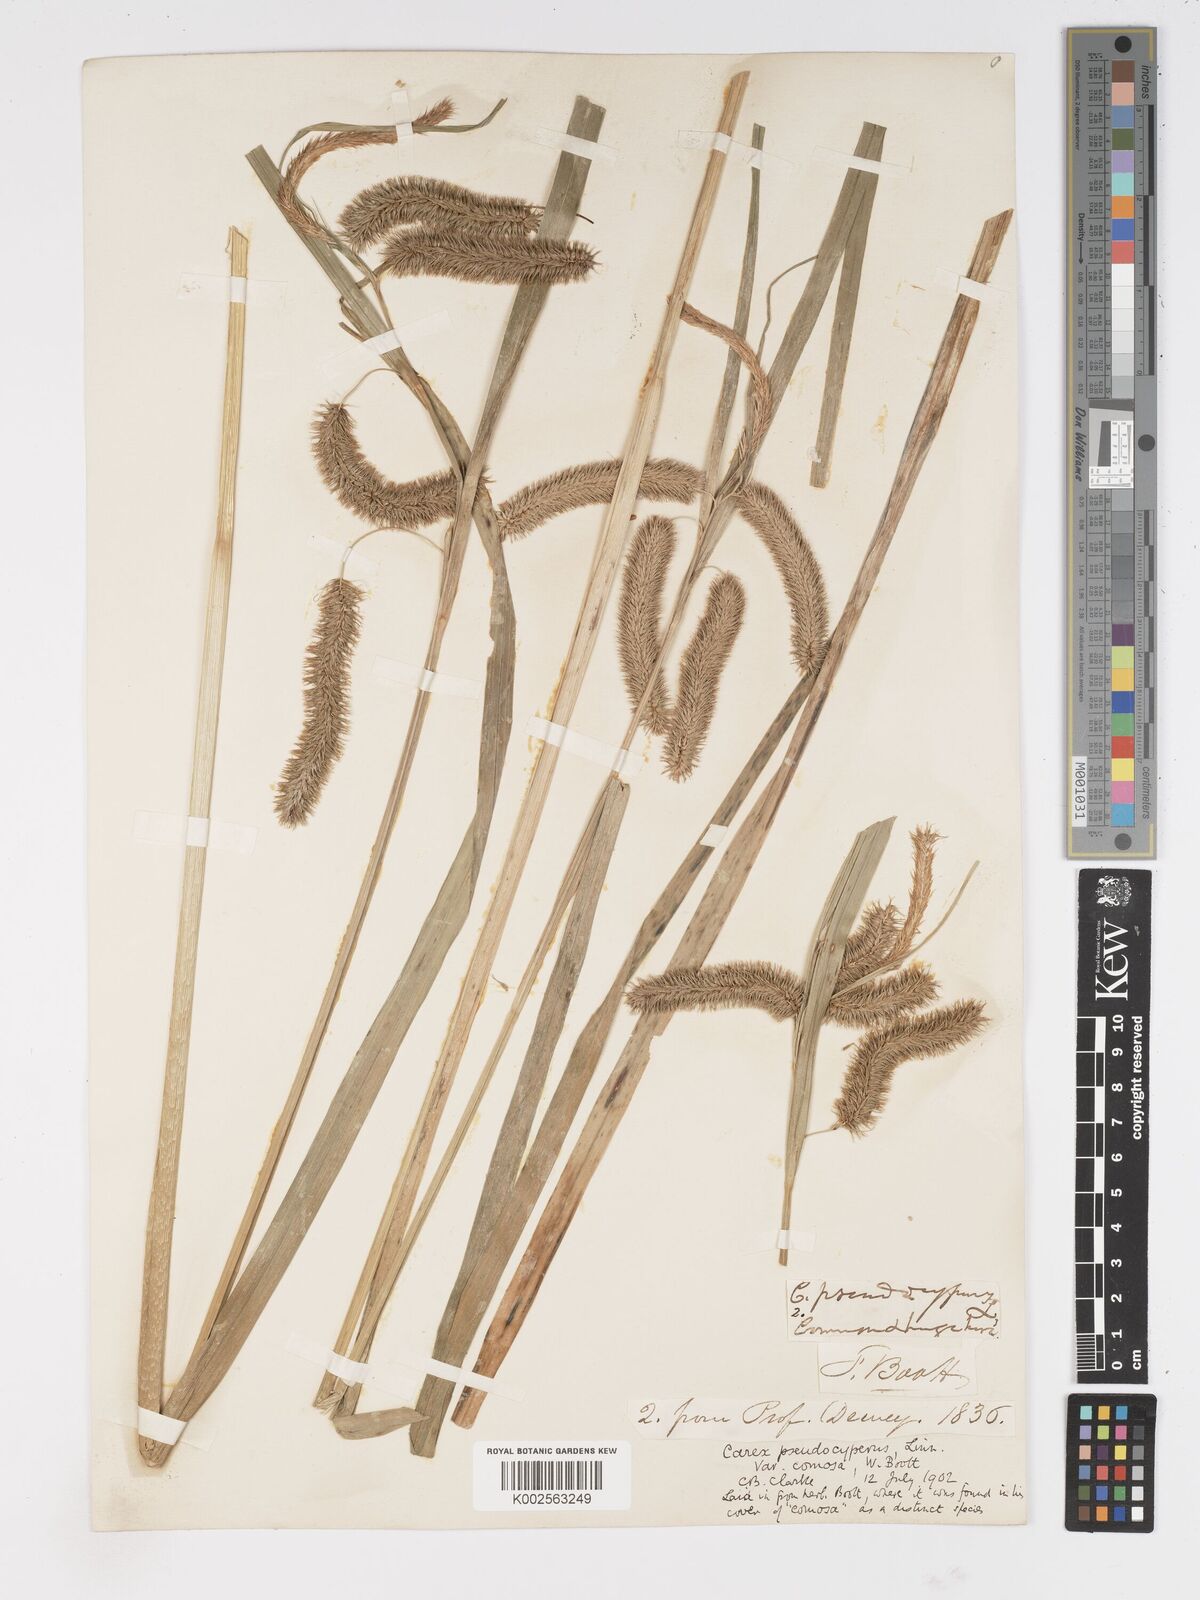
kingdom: Plantae
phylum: Tracheophyta
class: Liliopsida
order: Poales
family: Cyperaceae
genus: Carex
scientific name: Carex comosa
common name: Bristly sedge
